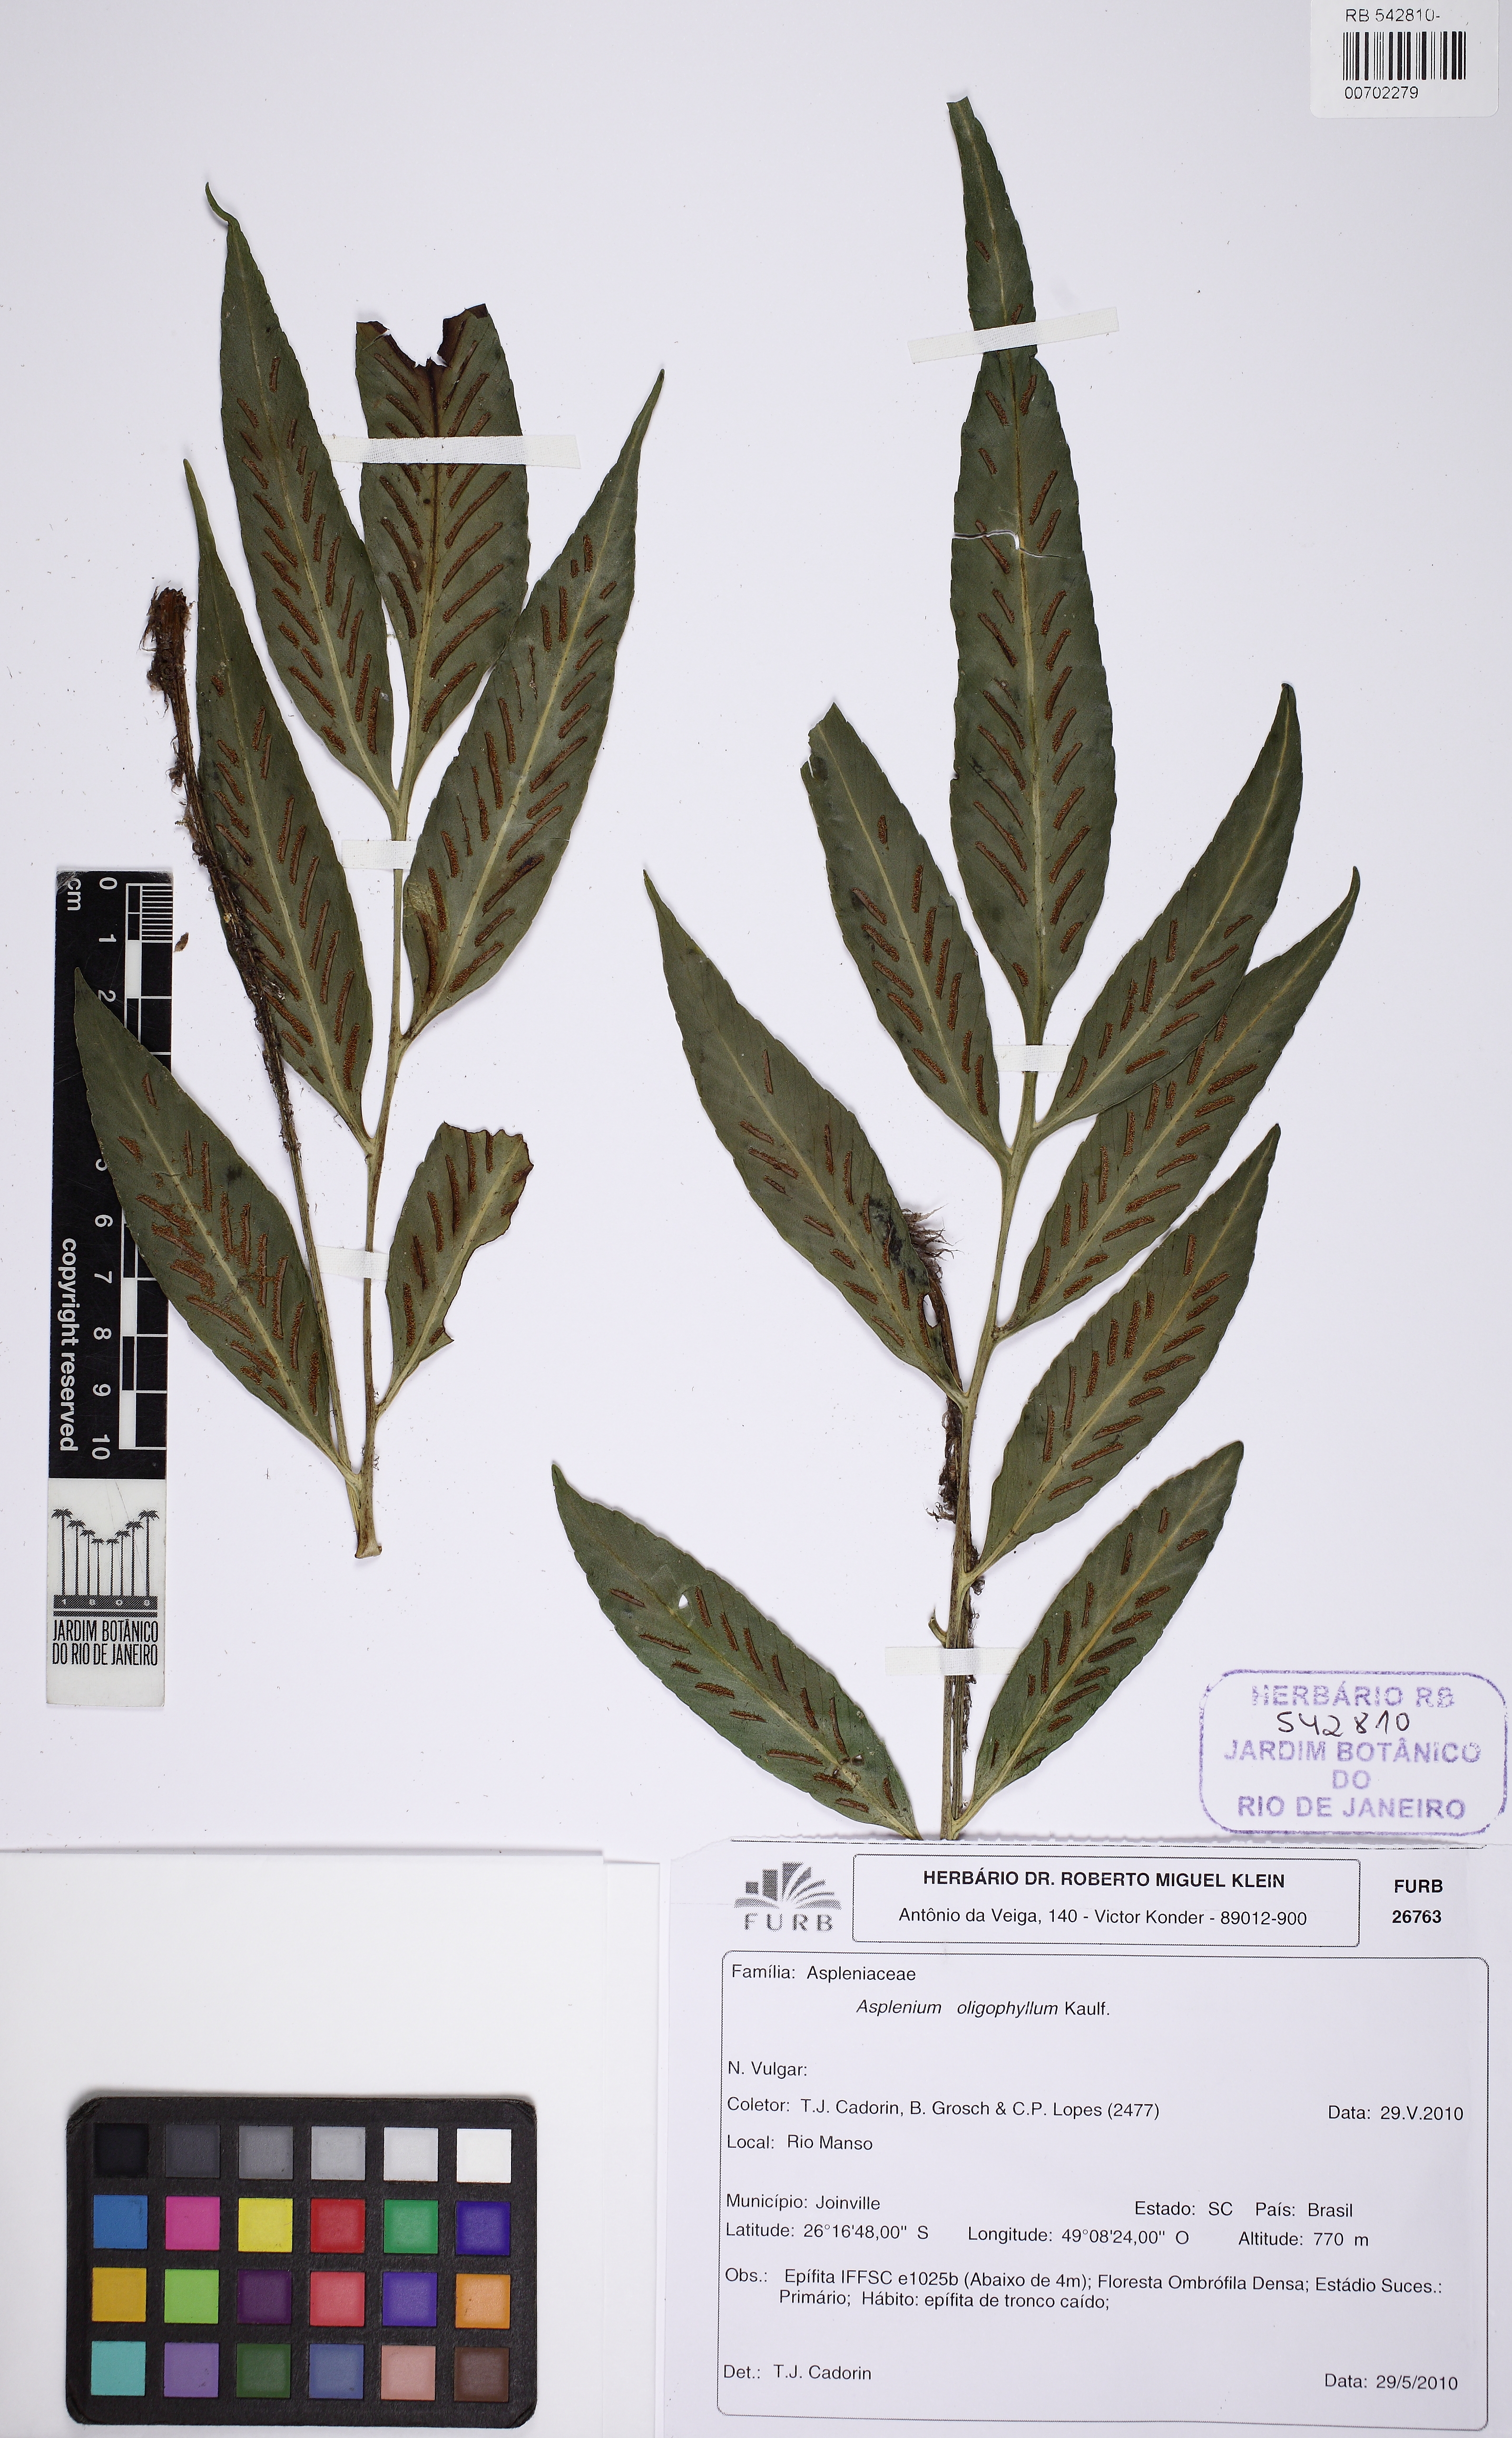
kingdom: Plantae
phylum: Tracheophyta
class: Polypodiopsida
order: Polypodiales
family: Aspleniaceae
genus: Asplenium
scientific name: Asplenium oligophyllum
